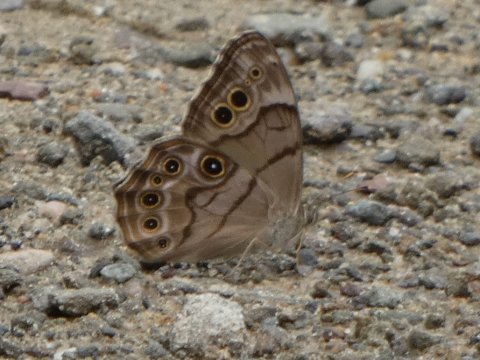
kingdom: Animalia
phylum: Arthropoda
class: Insecta
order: Lepidoptera
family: Nymphalidae
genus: Lethe
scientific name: Lethe anthedon
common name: Northern Pearly-Eye
